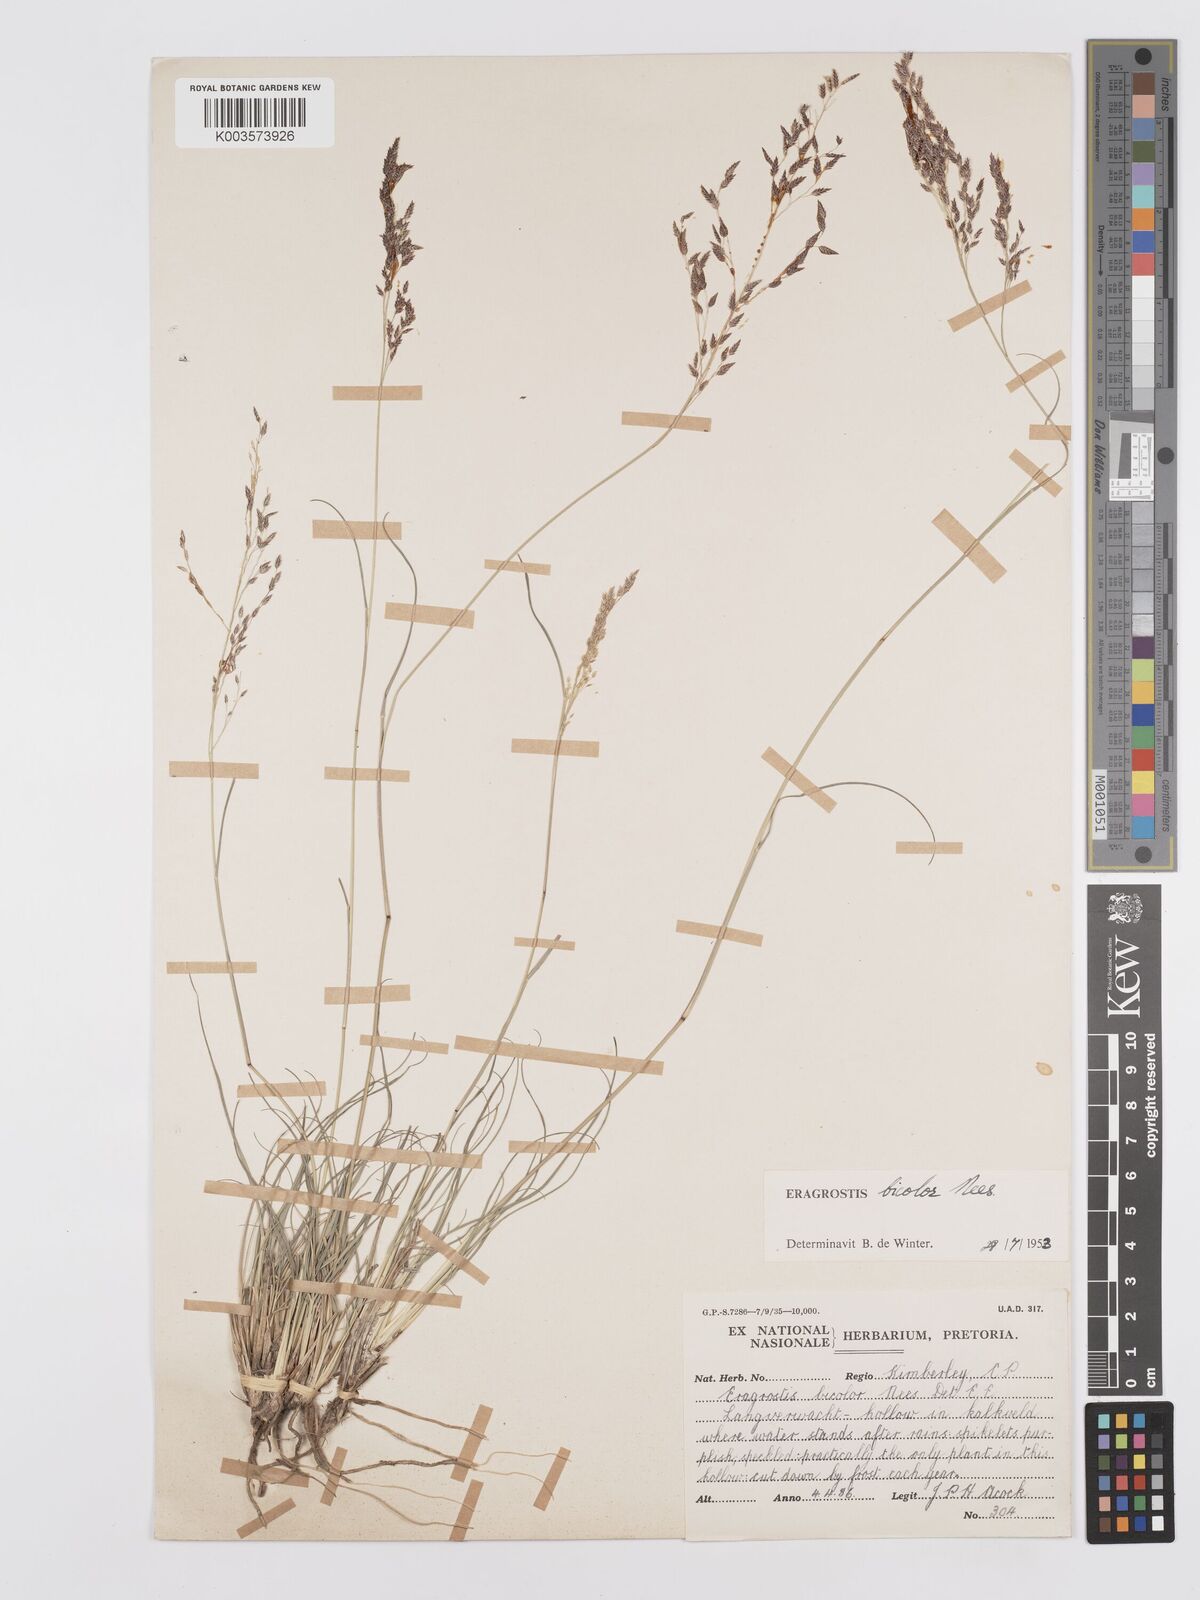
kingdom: Plantae
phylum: Tracheophyta
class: Liliopsida
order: Poales
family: Poaceae
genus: Eragrostis
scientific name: Eragrostis
